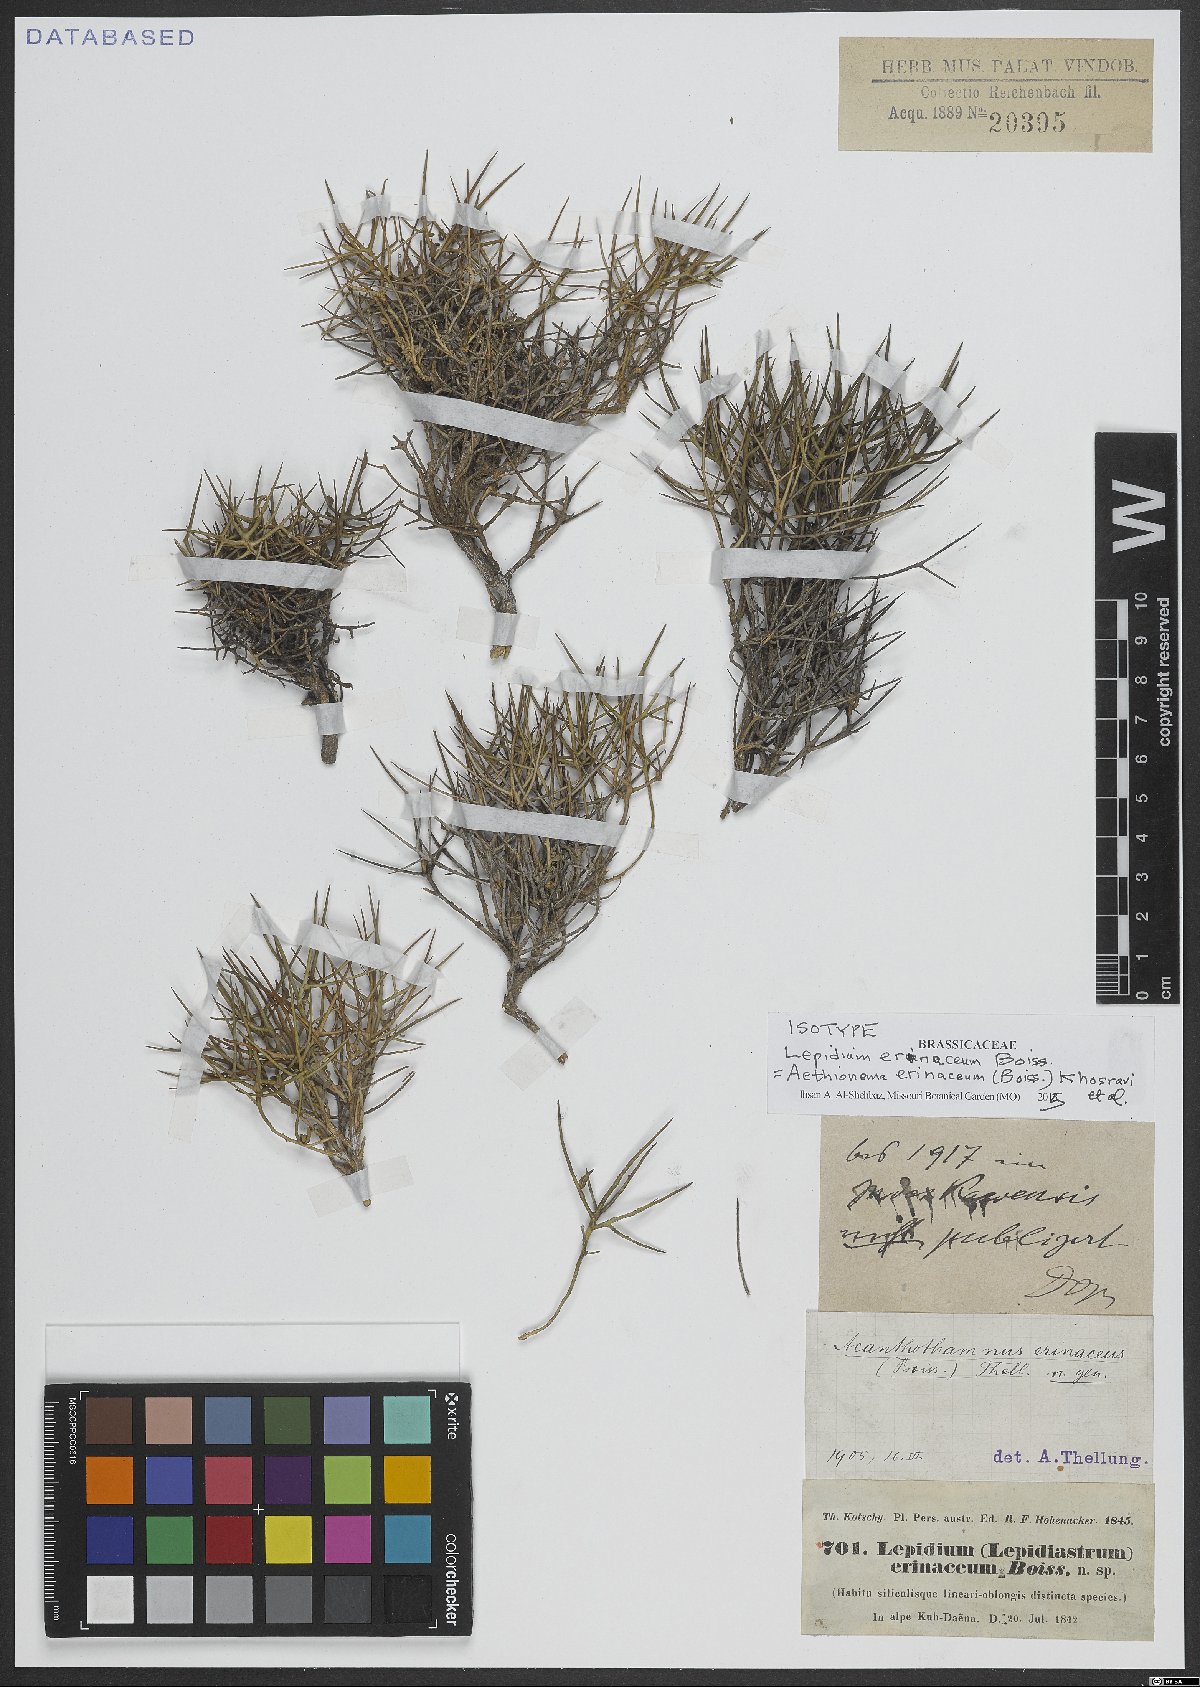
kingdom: Plantae
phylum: Tracheophyta
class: Magnoliopsida
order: Brassicales
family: Brassicaceae
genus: Aethionema
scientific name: Aethionema erinaceum
